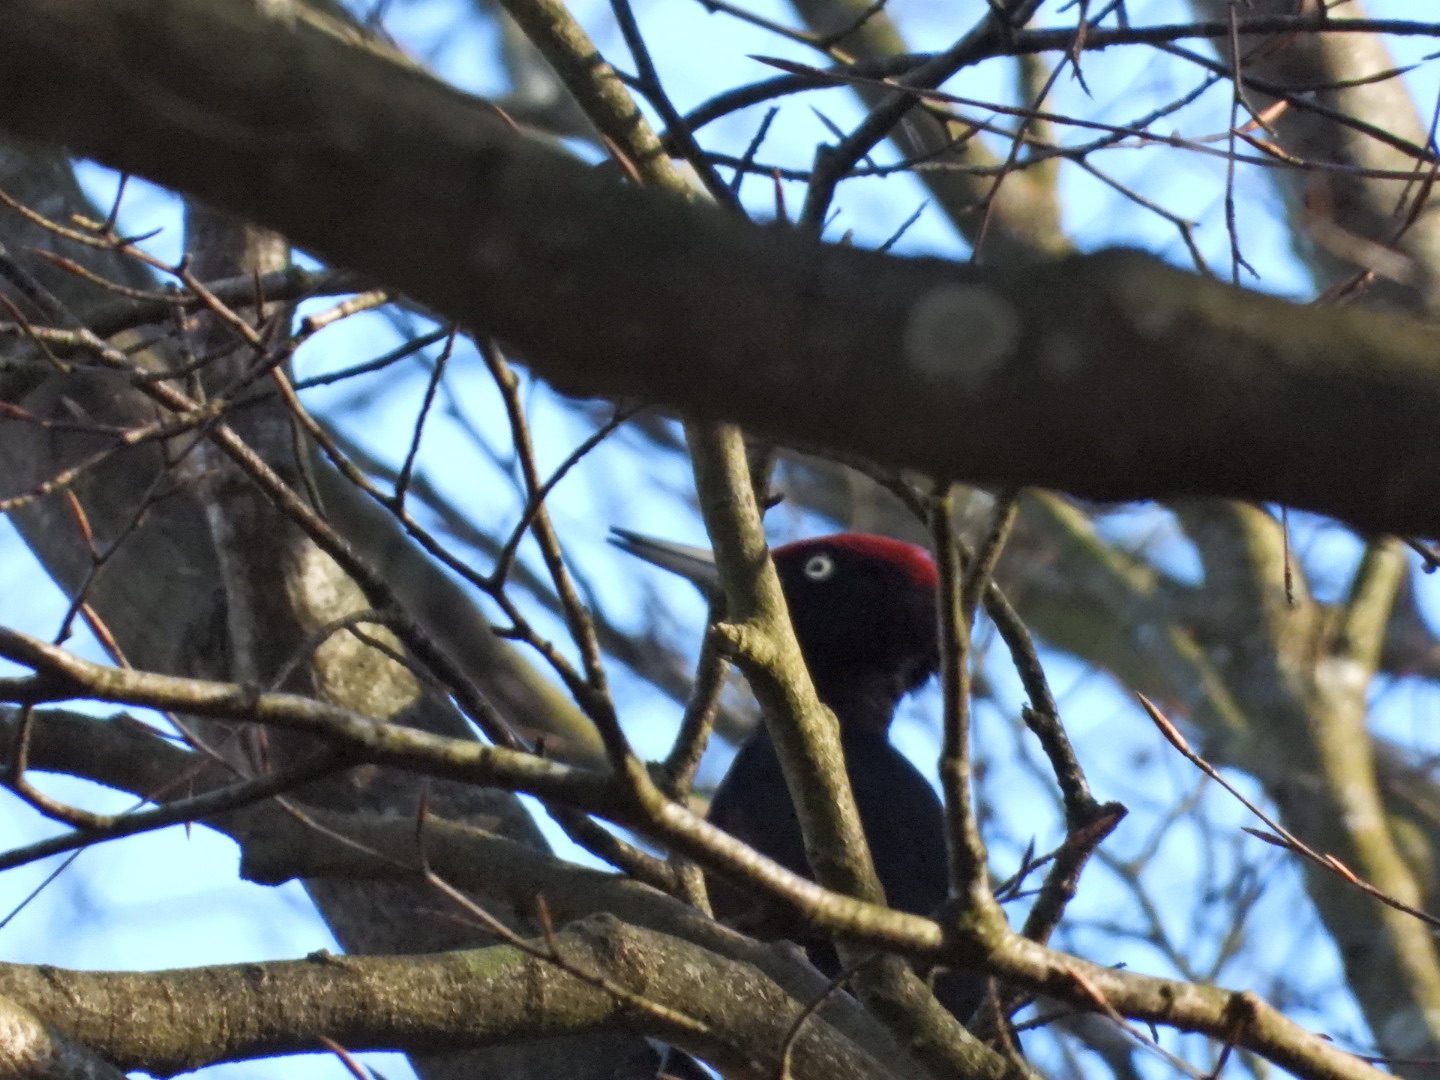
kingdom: Animalia
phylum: Chordata
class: Aves
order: Piciformes
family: Picidae
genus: Dryocopus
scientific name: Dryocopus martius
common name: Sortspætte
